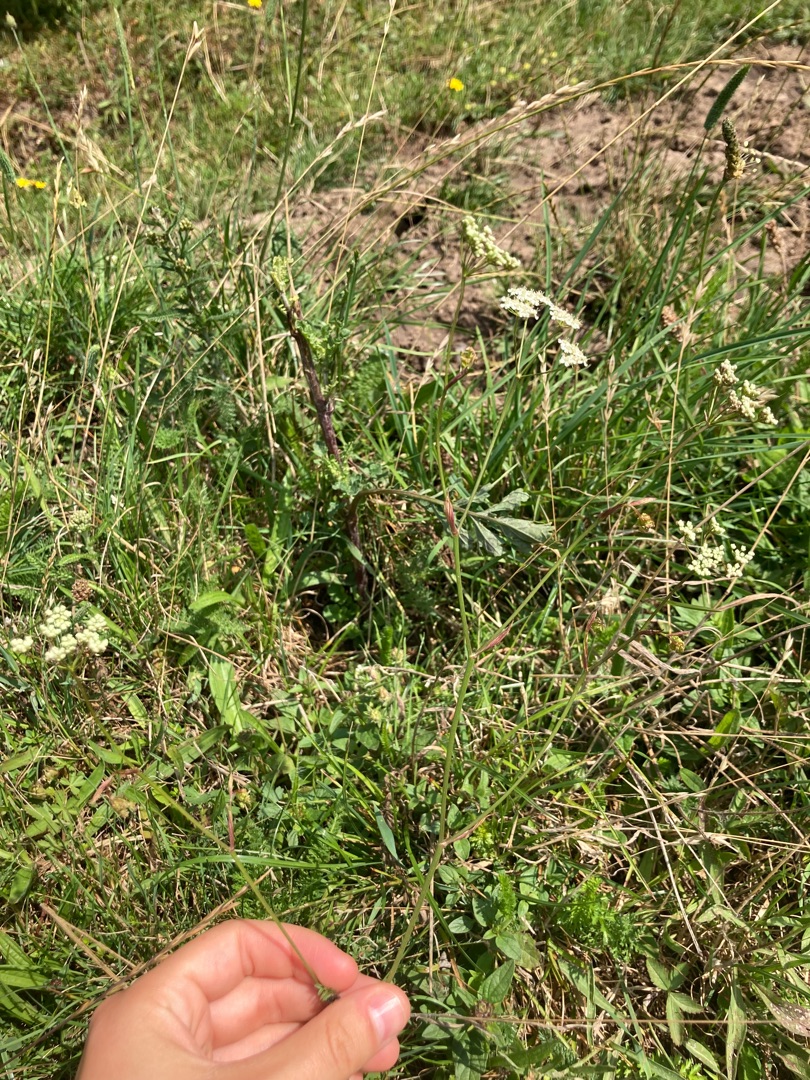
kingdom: Plantae
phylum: Tracheophyta
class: Magnoliopsida
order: Apiales
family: Apiaceae
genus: Pimpinella
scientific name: Pimpinella saxifraga
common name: Almindelig pimpinelle
